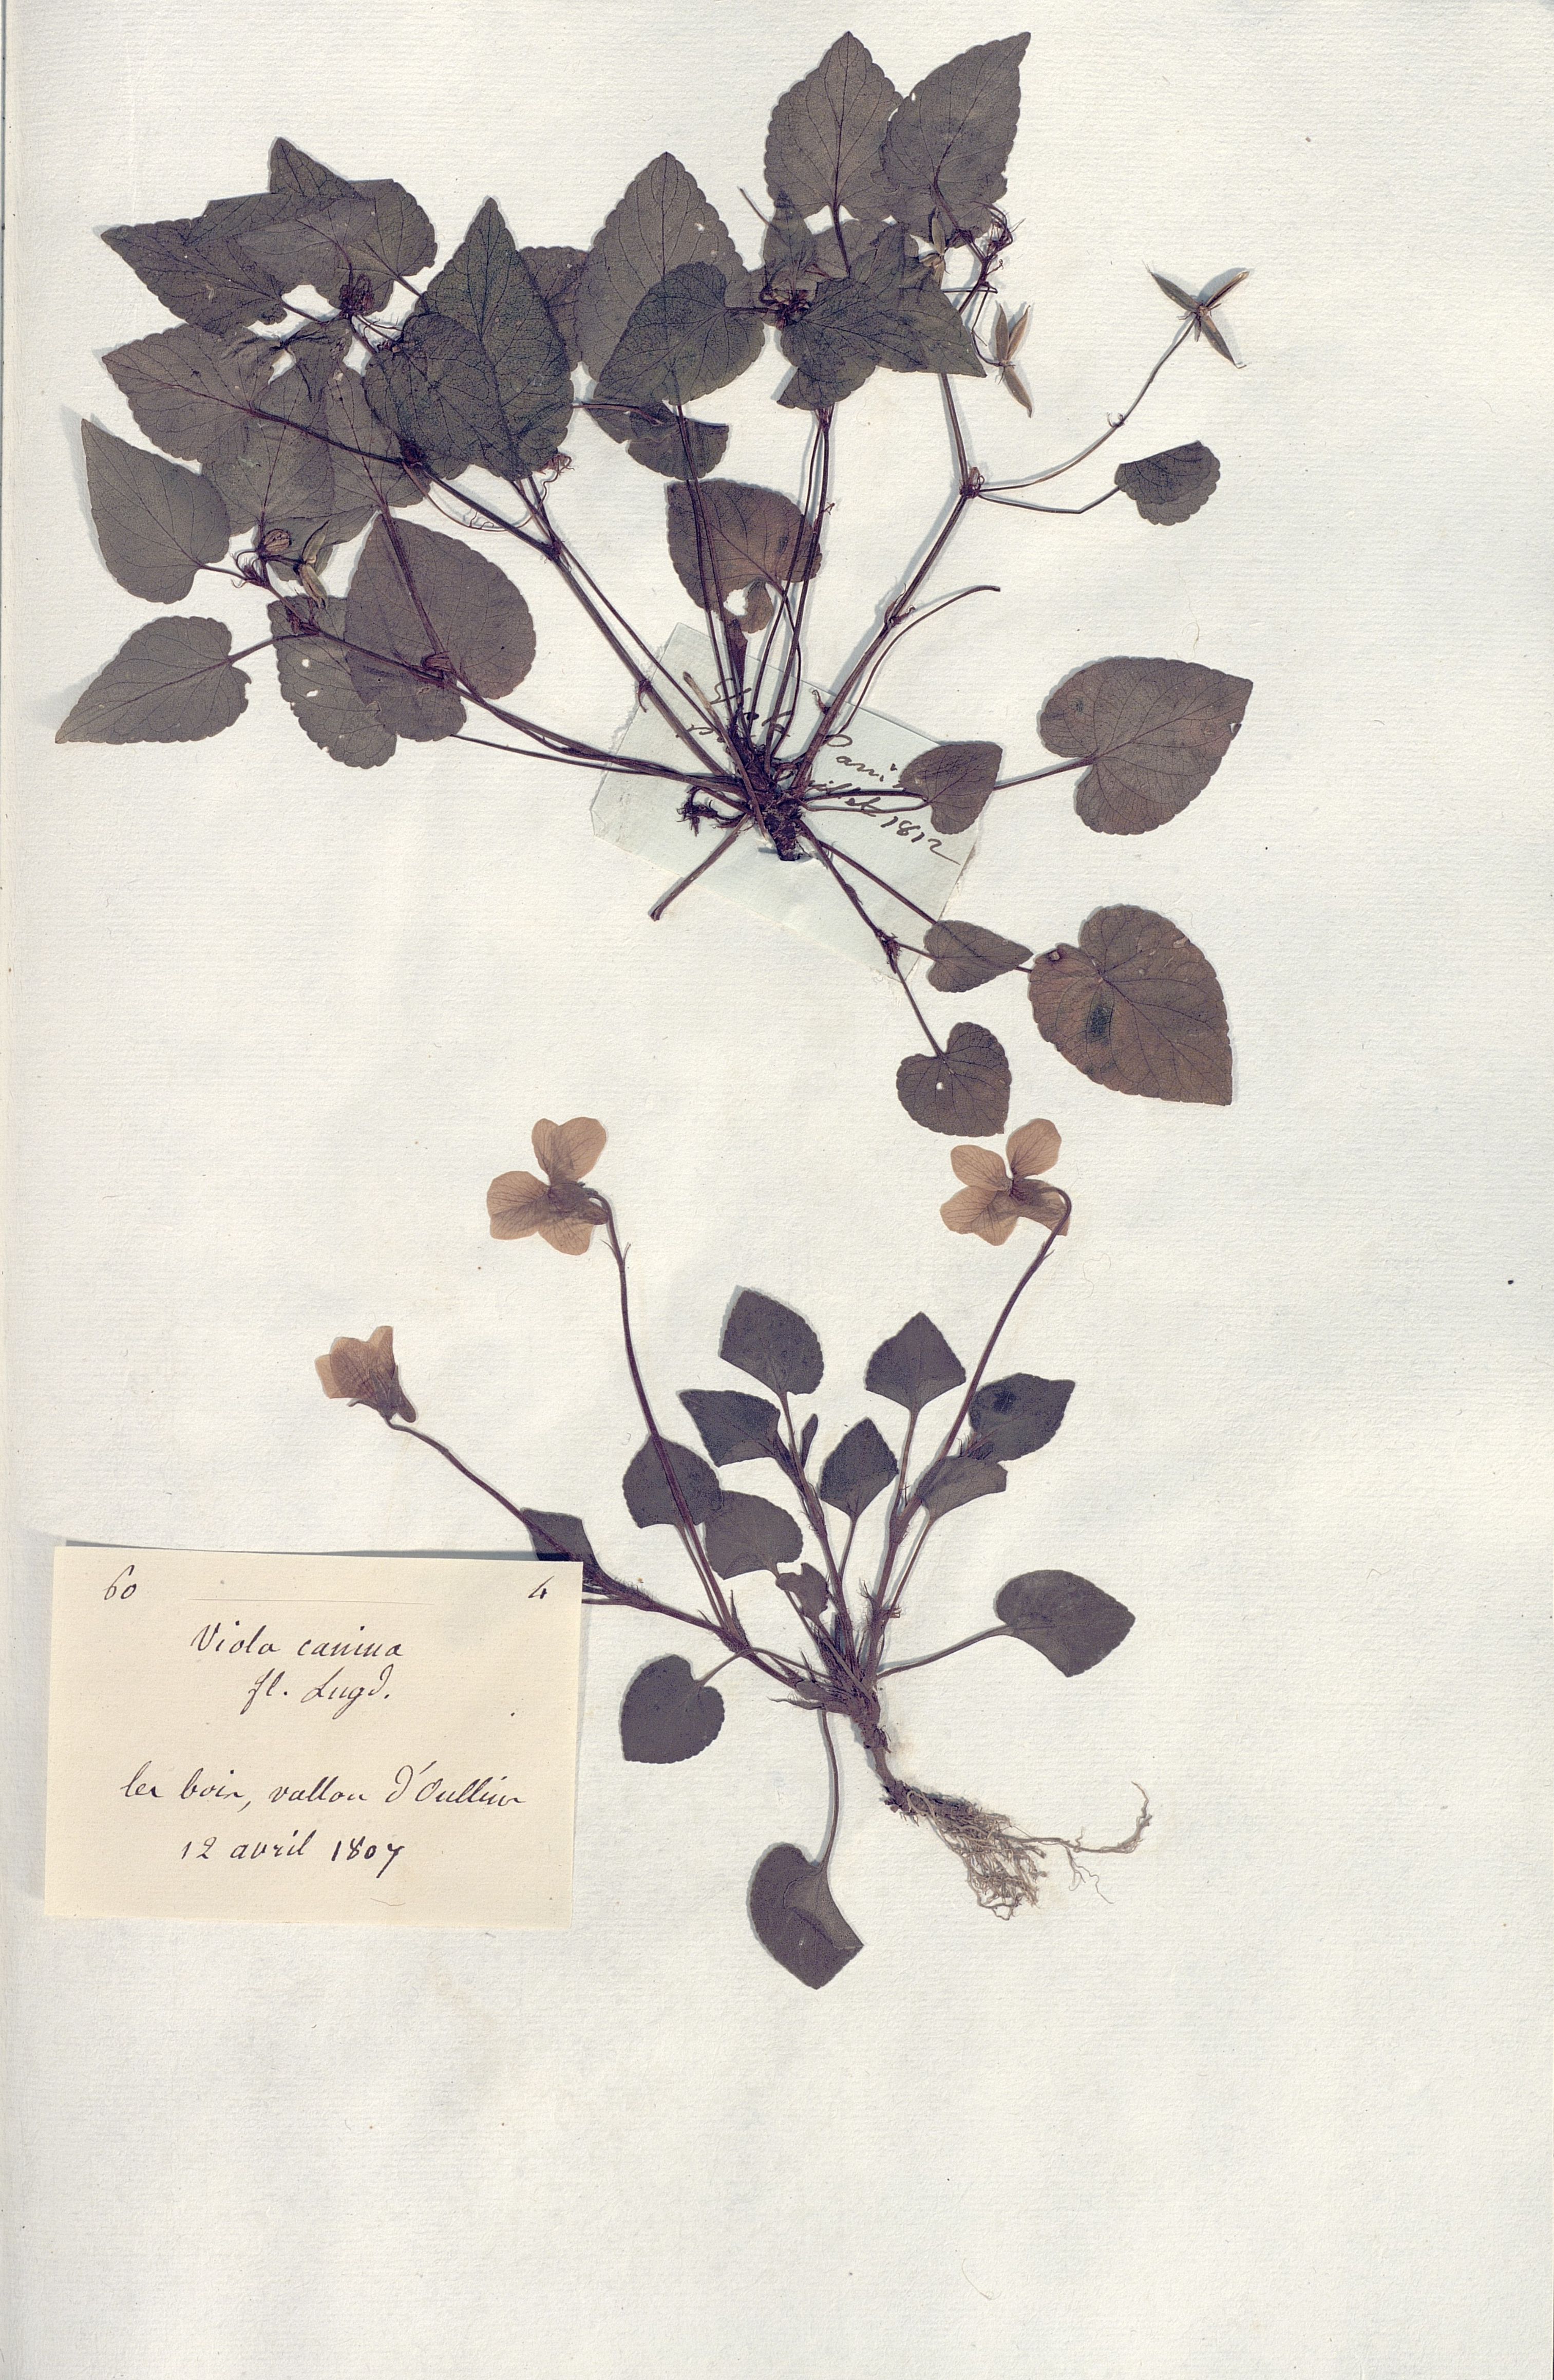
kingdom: Plantae
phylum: Tracheophyta
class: Magnoliopsida
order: Malpighiales
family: Violaceae
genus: Viola
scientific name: Viola canina
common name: Heath dog-violet
